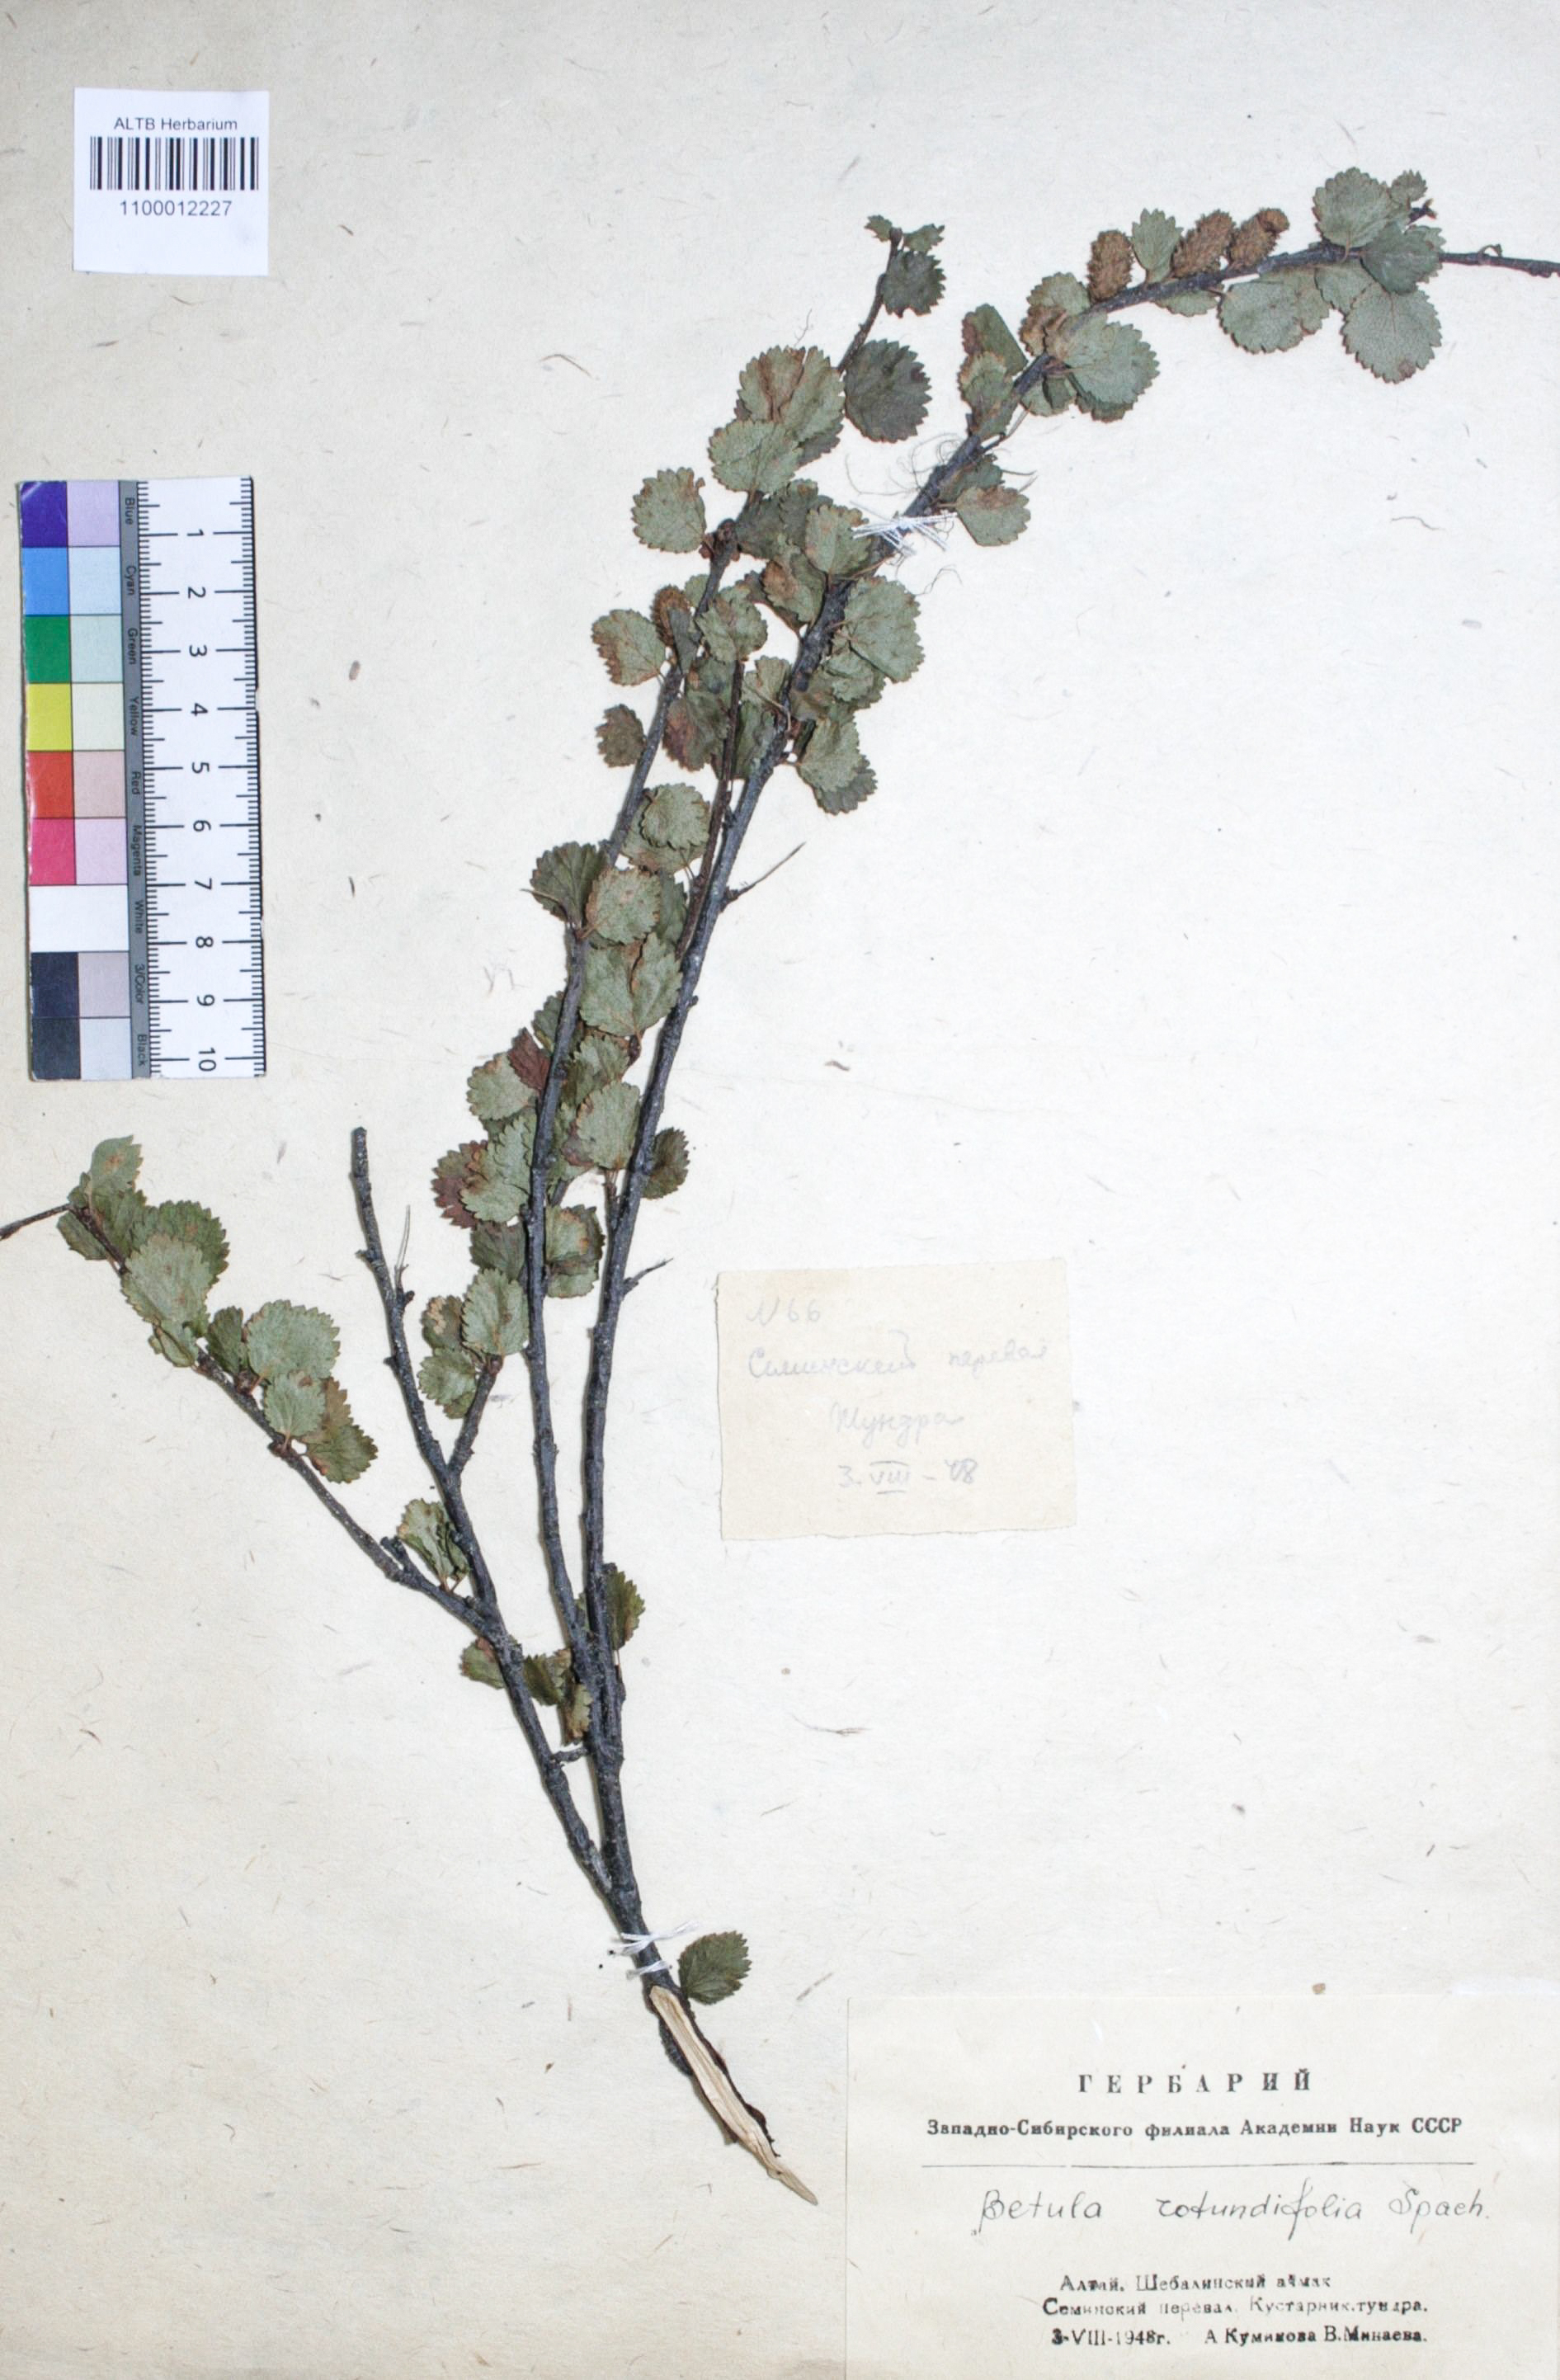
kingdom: Plantae
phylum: Tracheophyta
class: Magnoliopsida
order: Fagales
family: Betulaceae
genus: Betula
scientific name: Betula glandulosa
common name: Dwarf birch
